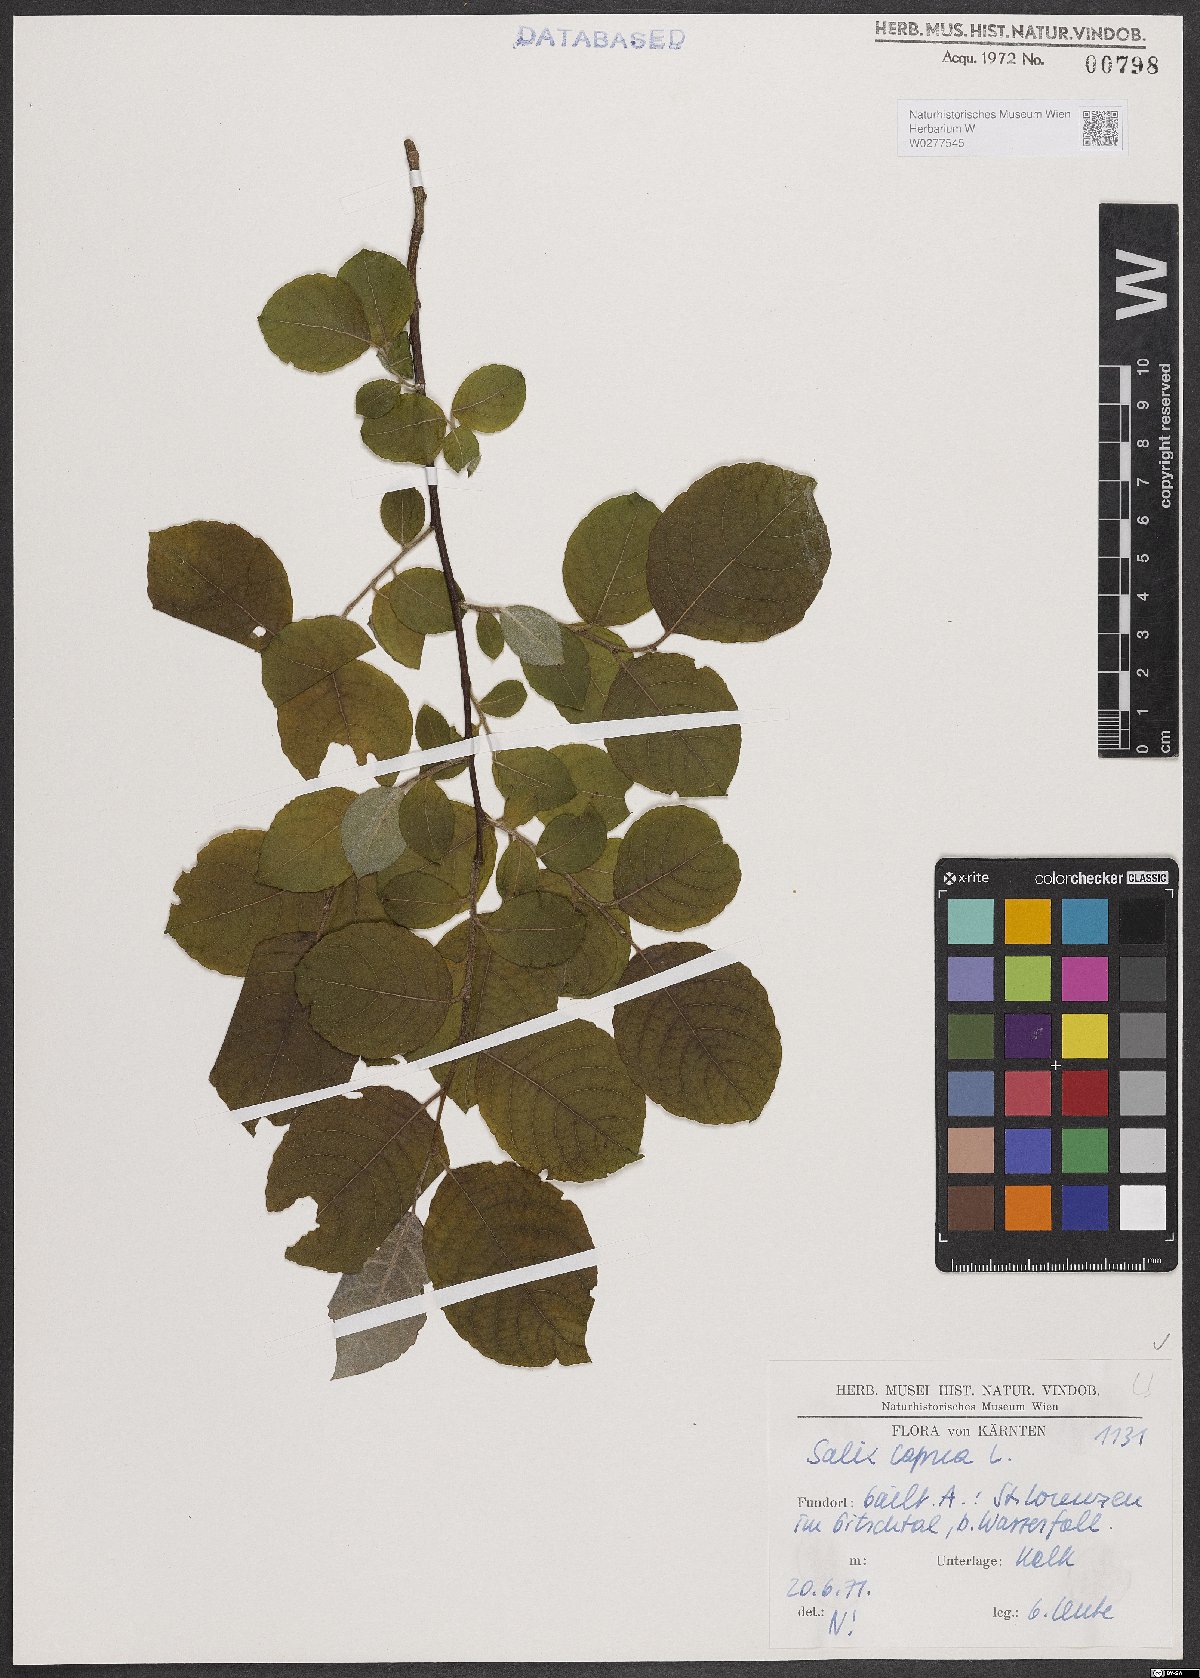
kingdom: Plantae
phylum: Tracheophyta
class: Magnoliopsida
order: Malpighiales
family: Salicaceae
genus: Salix
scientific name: Salix caprea
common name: Goat willow
